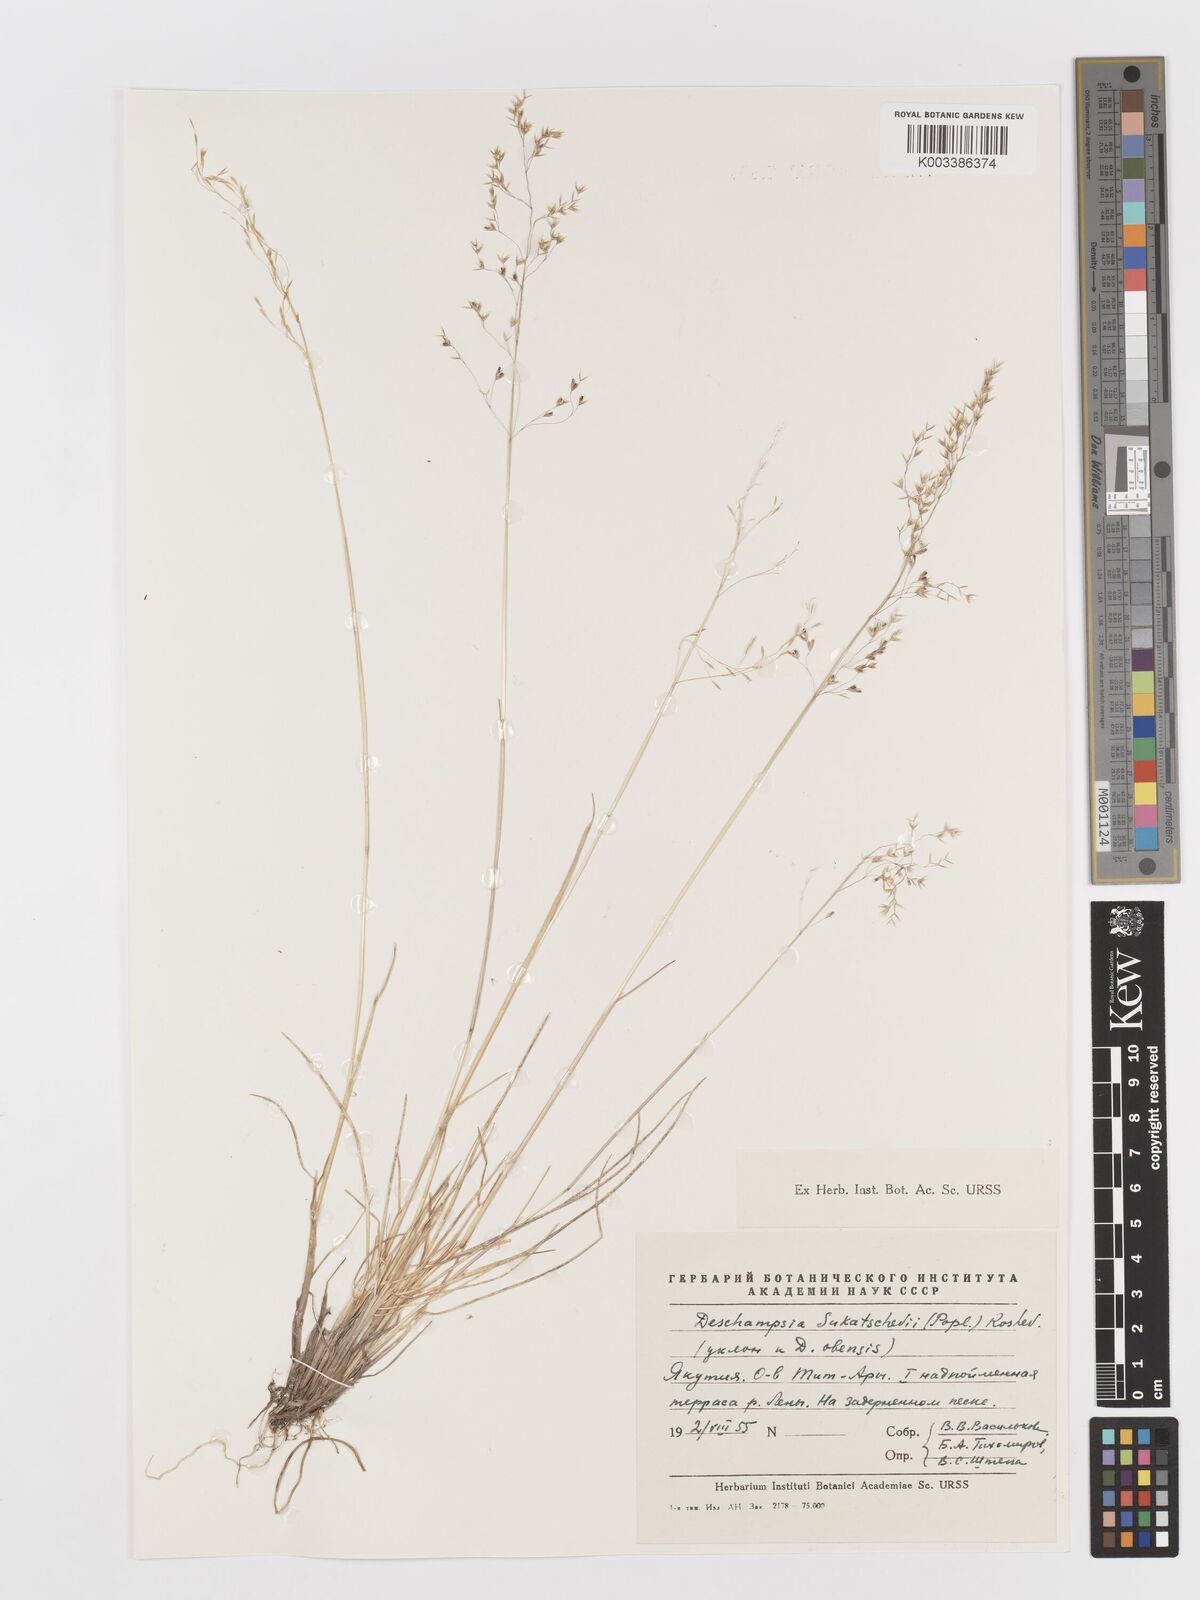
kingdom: Plantae
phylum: Tracheophyta
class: Liliopsida
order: Poales
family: Poaceae
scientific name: Poaceae
